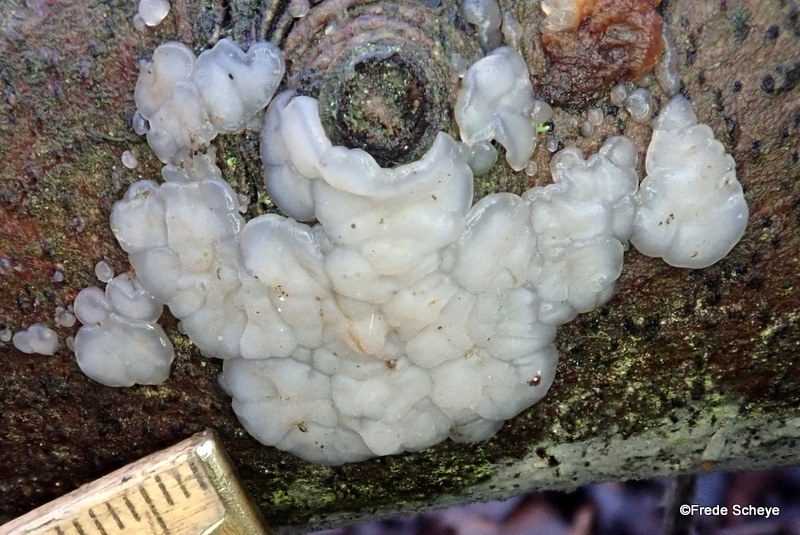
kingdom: Fungi
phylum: Basidiomycota
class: Agaricomycetes
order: Auriculariales
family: Auriculariaceae
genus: Exidia
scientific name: Exidia thuretiana
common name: hvidlig bævretop
